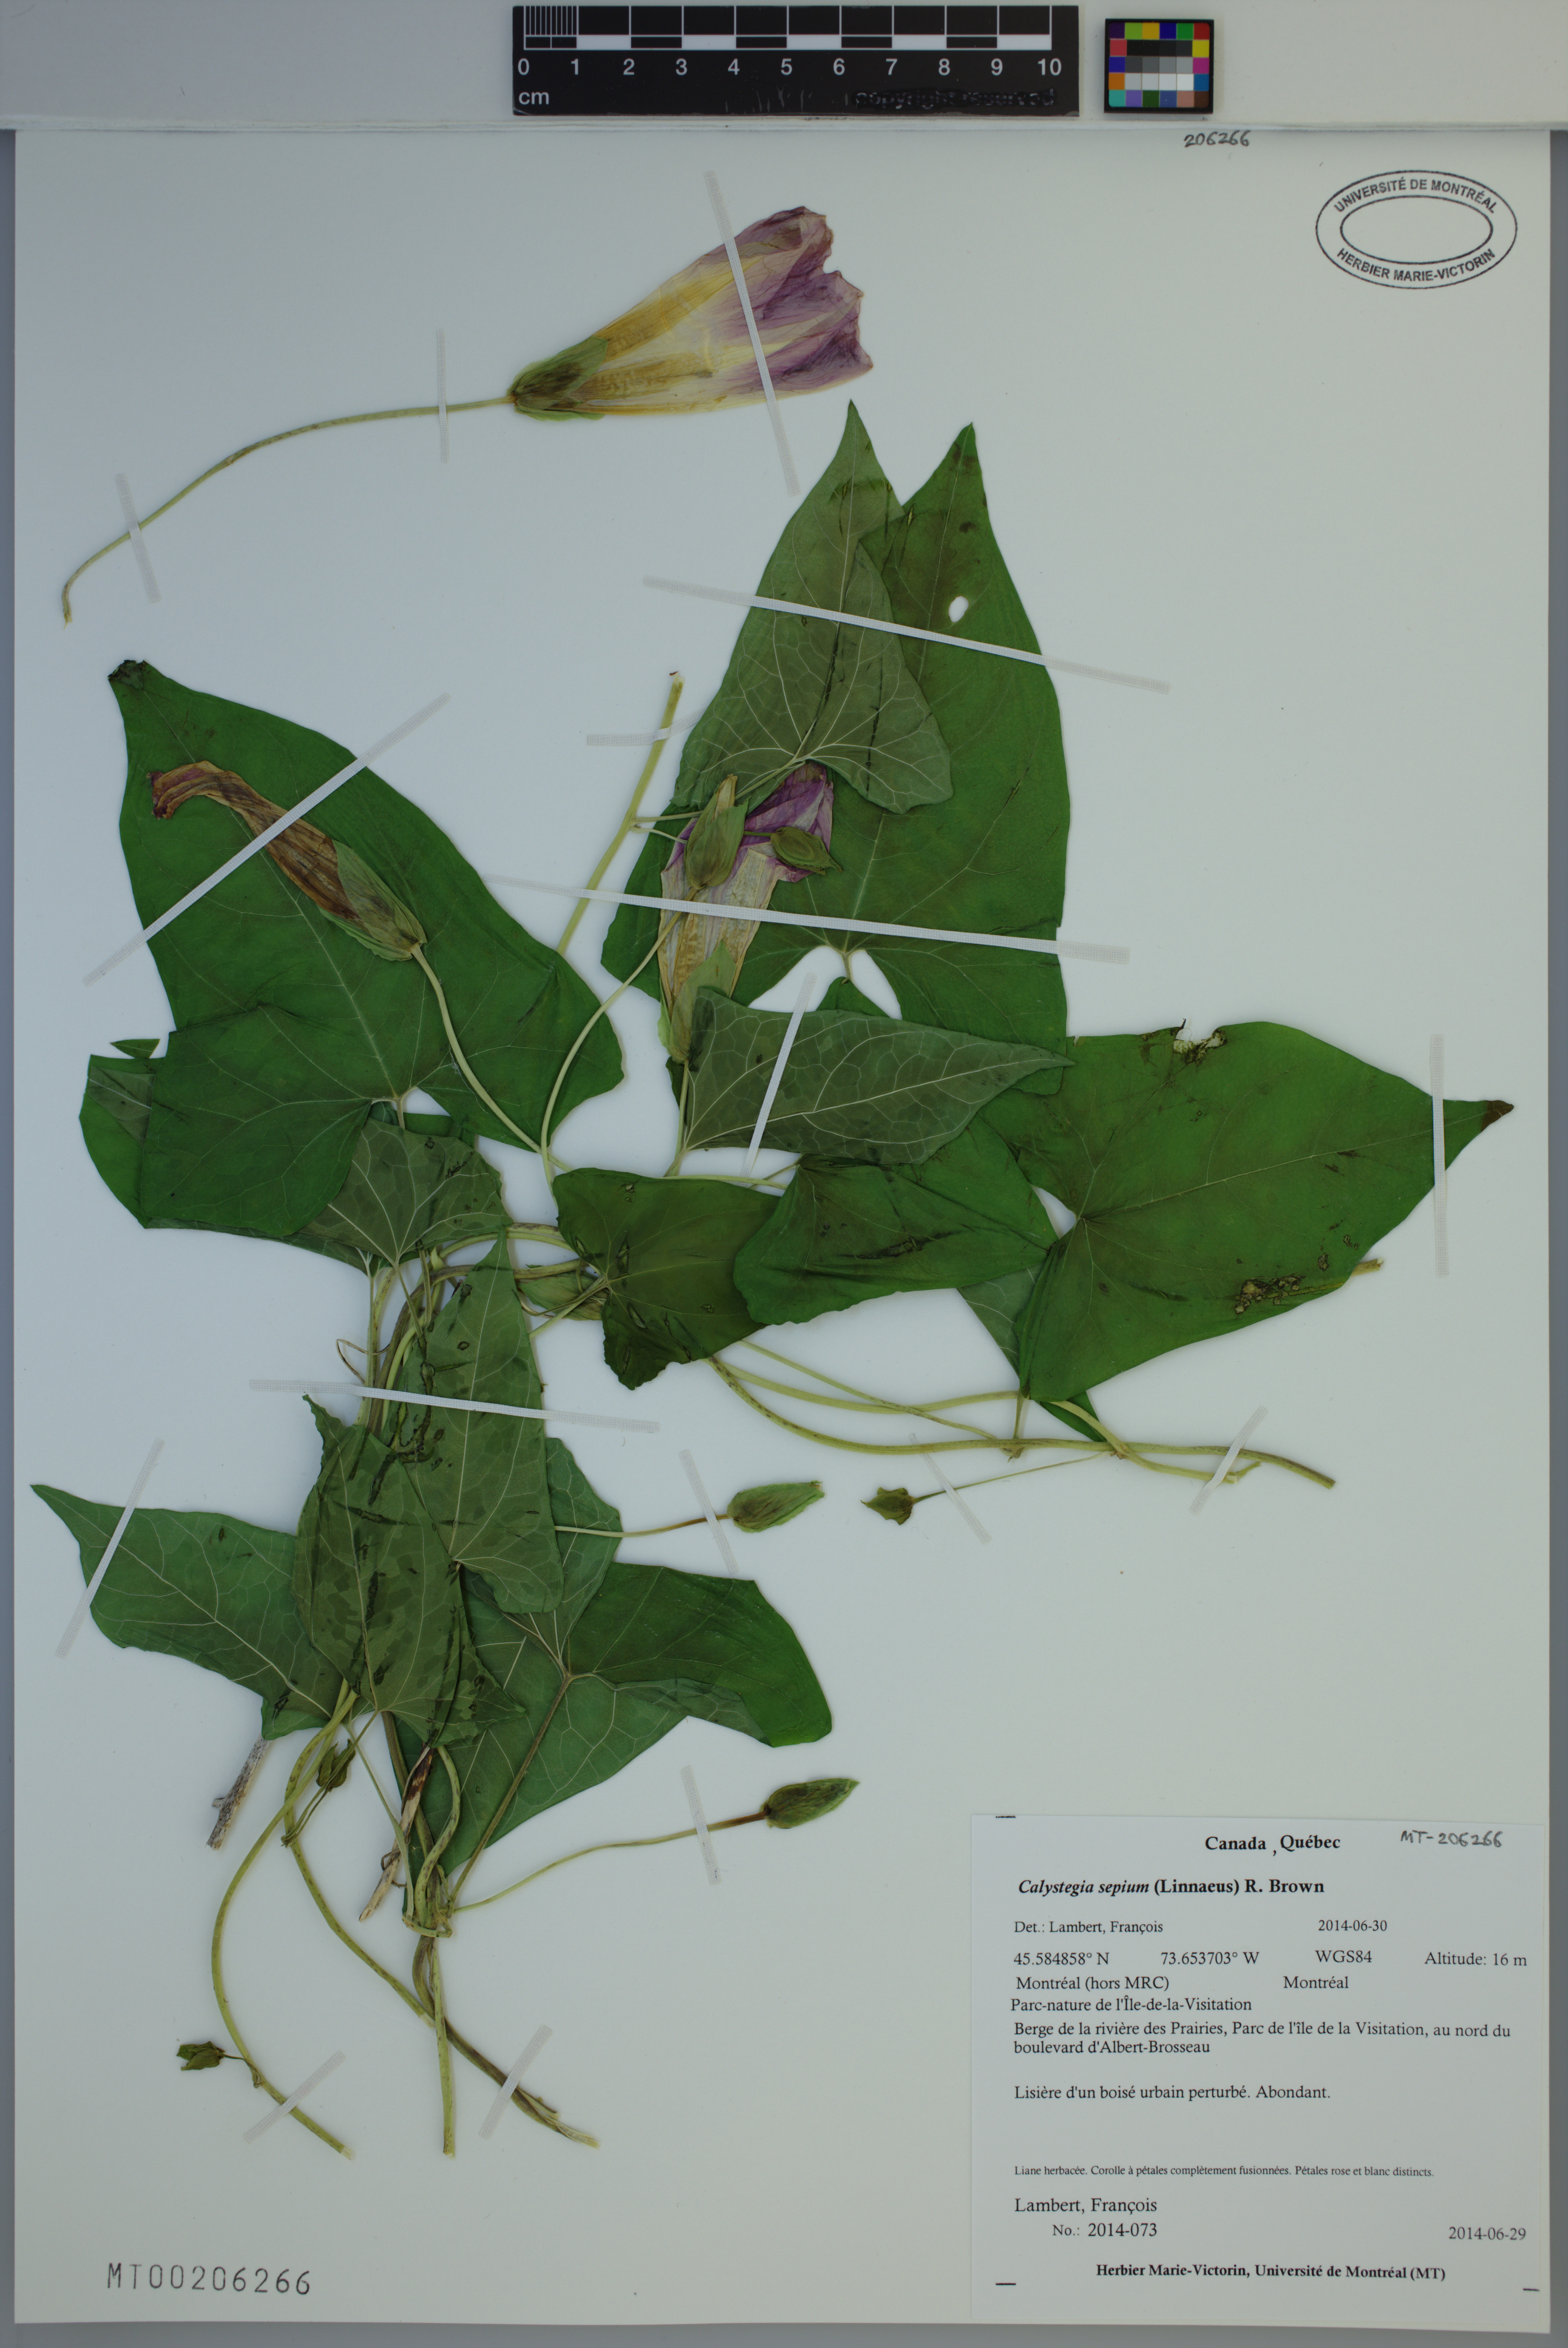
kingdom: Plantae
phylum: Tracheophyta
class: Magnoliopsida
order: Solanales
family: Convolvulaceae
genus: Calystegia
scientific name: Calystegia sepium
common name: Hedge bindweed
